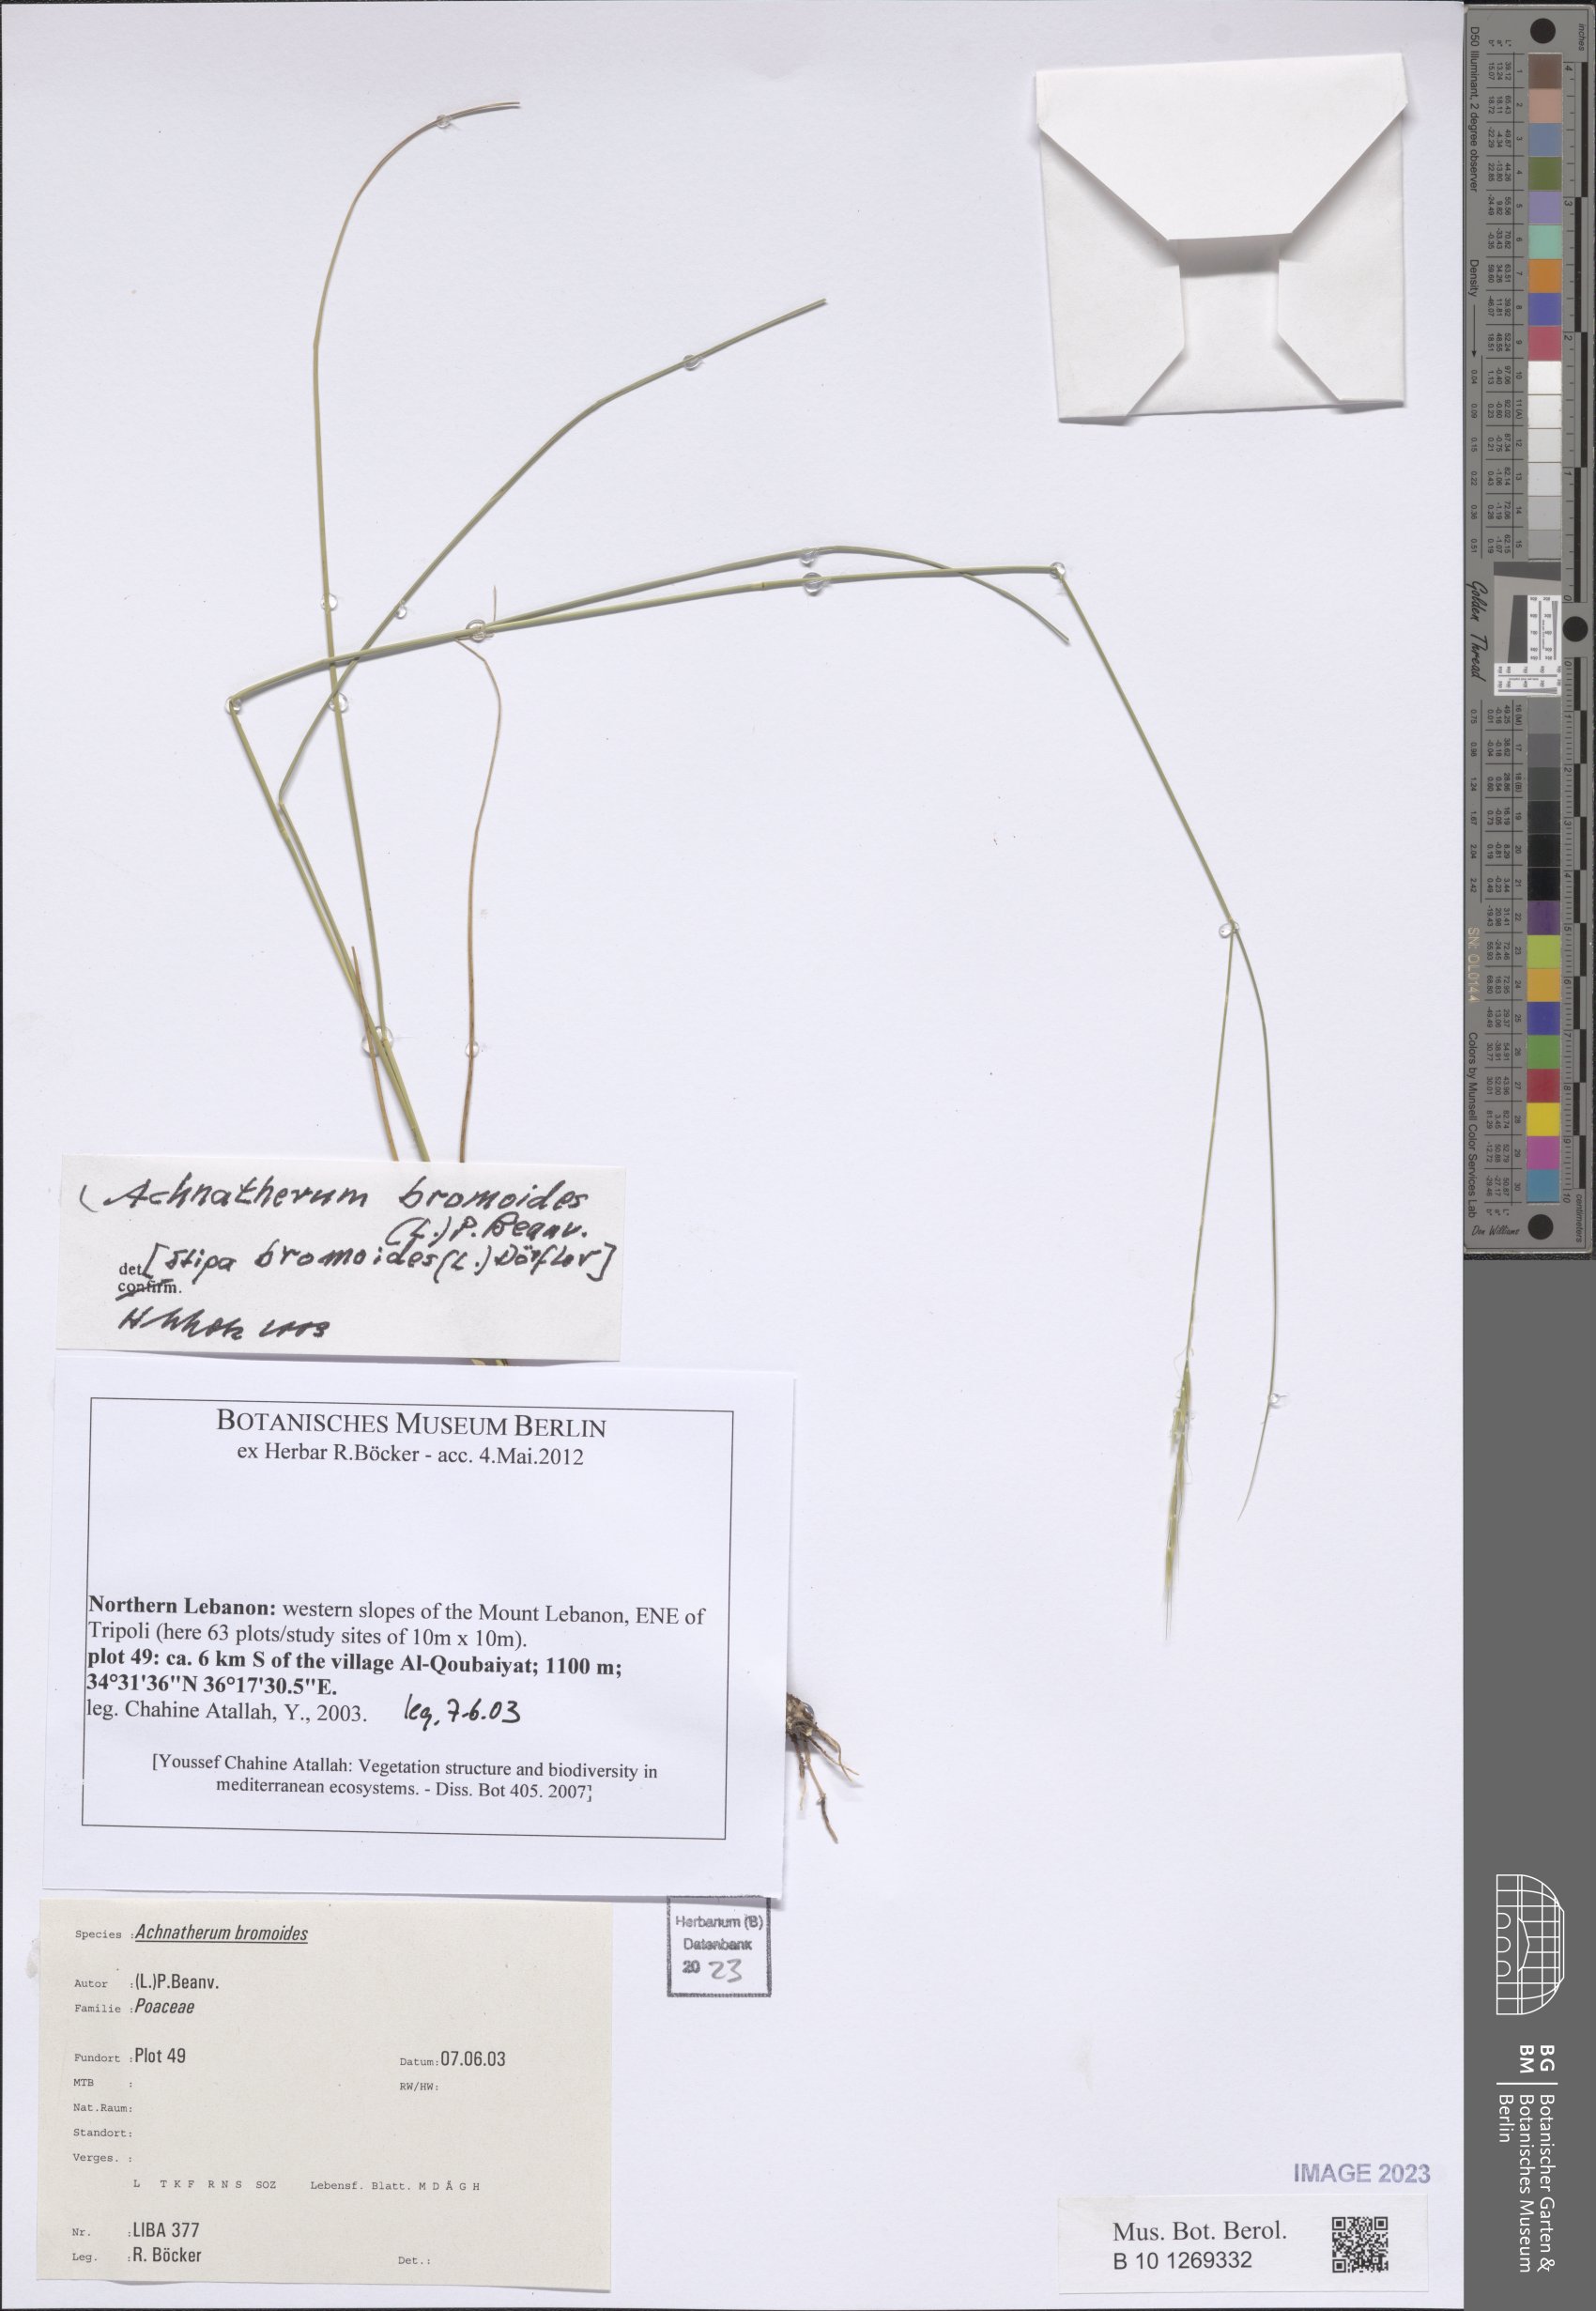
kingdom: Plantae
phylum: Tracheophyta
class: Liliopsida
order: Poales
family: Poaceae
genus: Achnatherum
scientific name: Achnatherum bromoides
